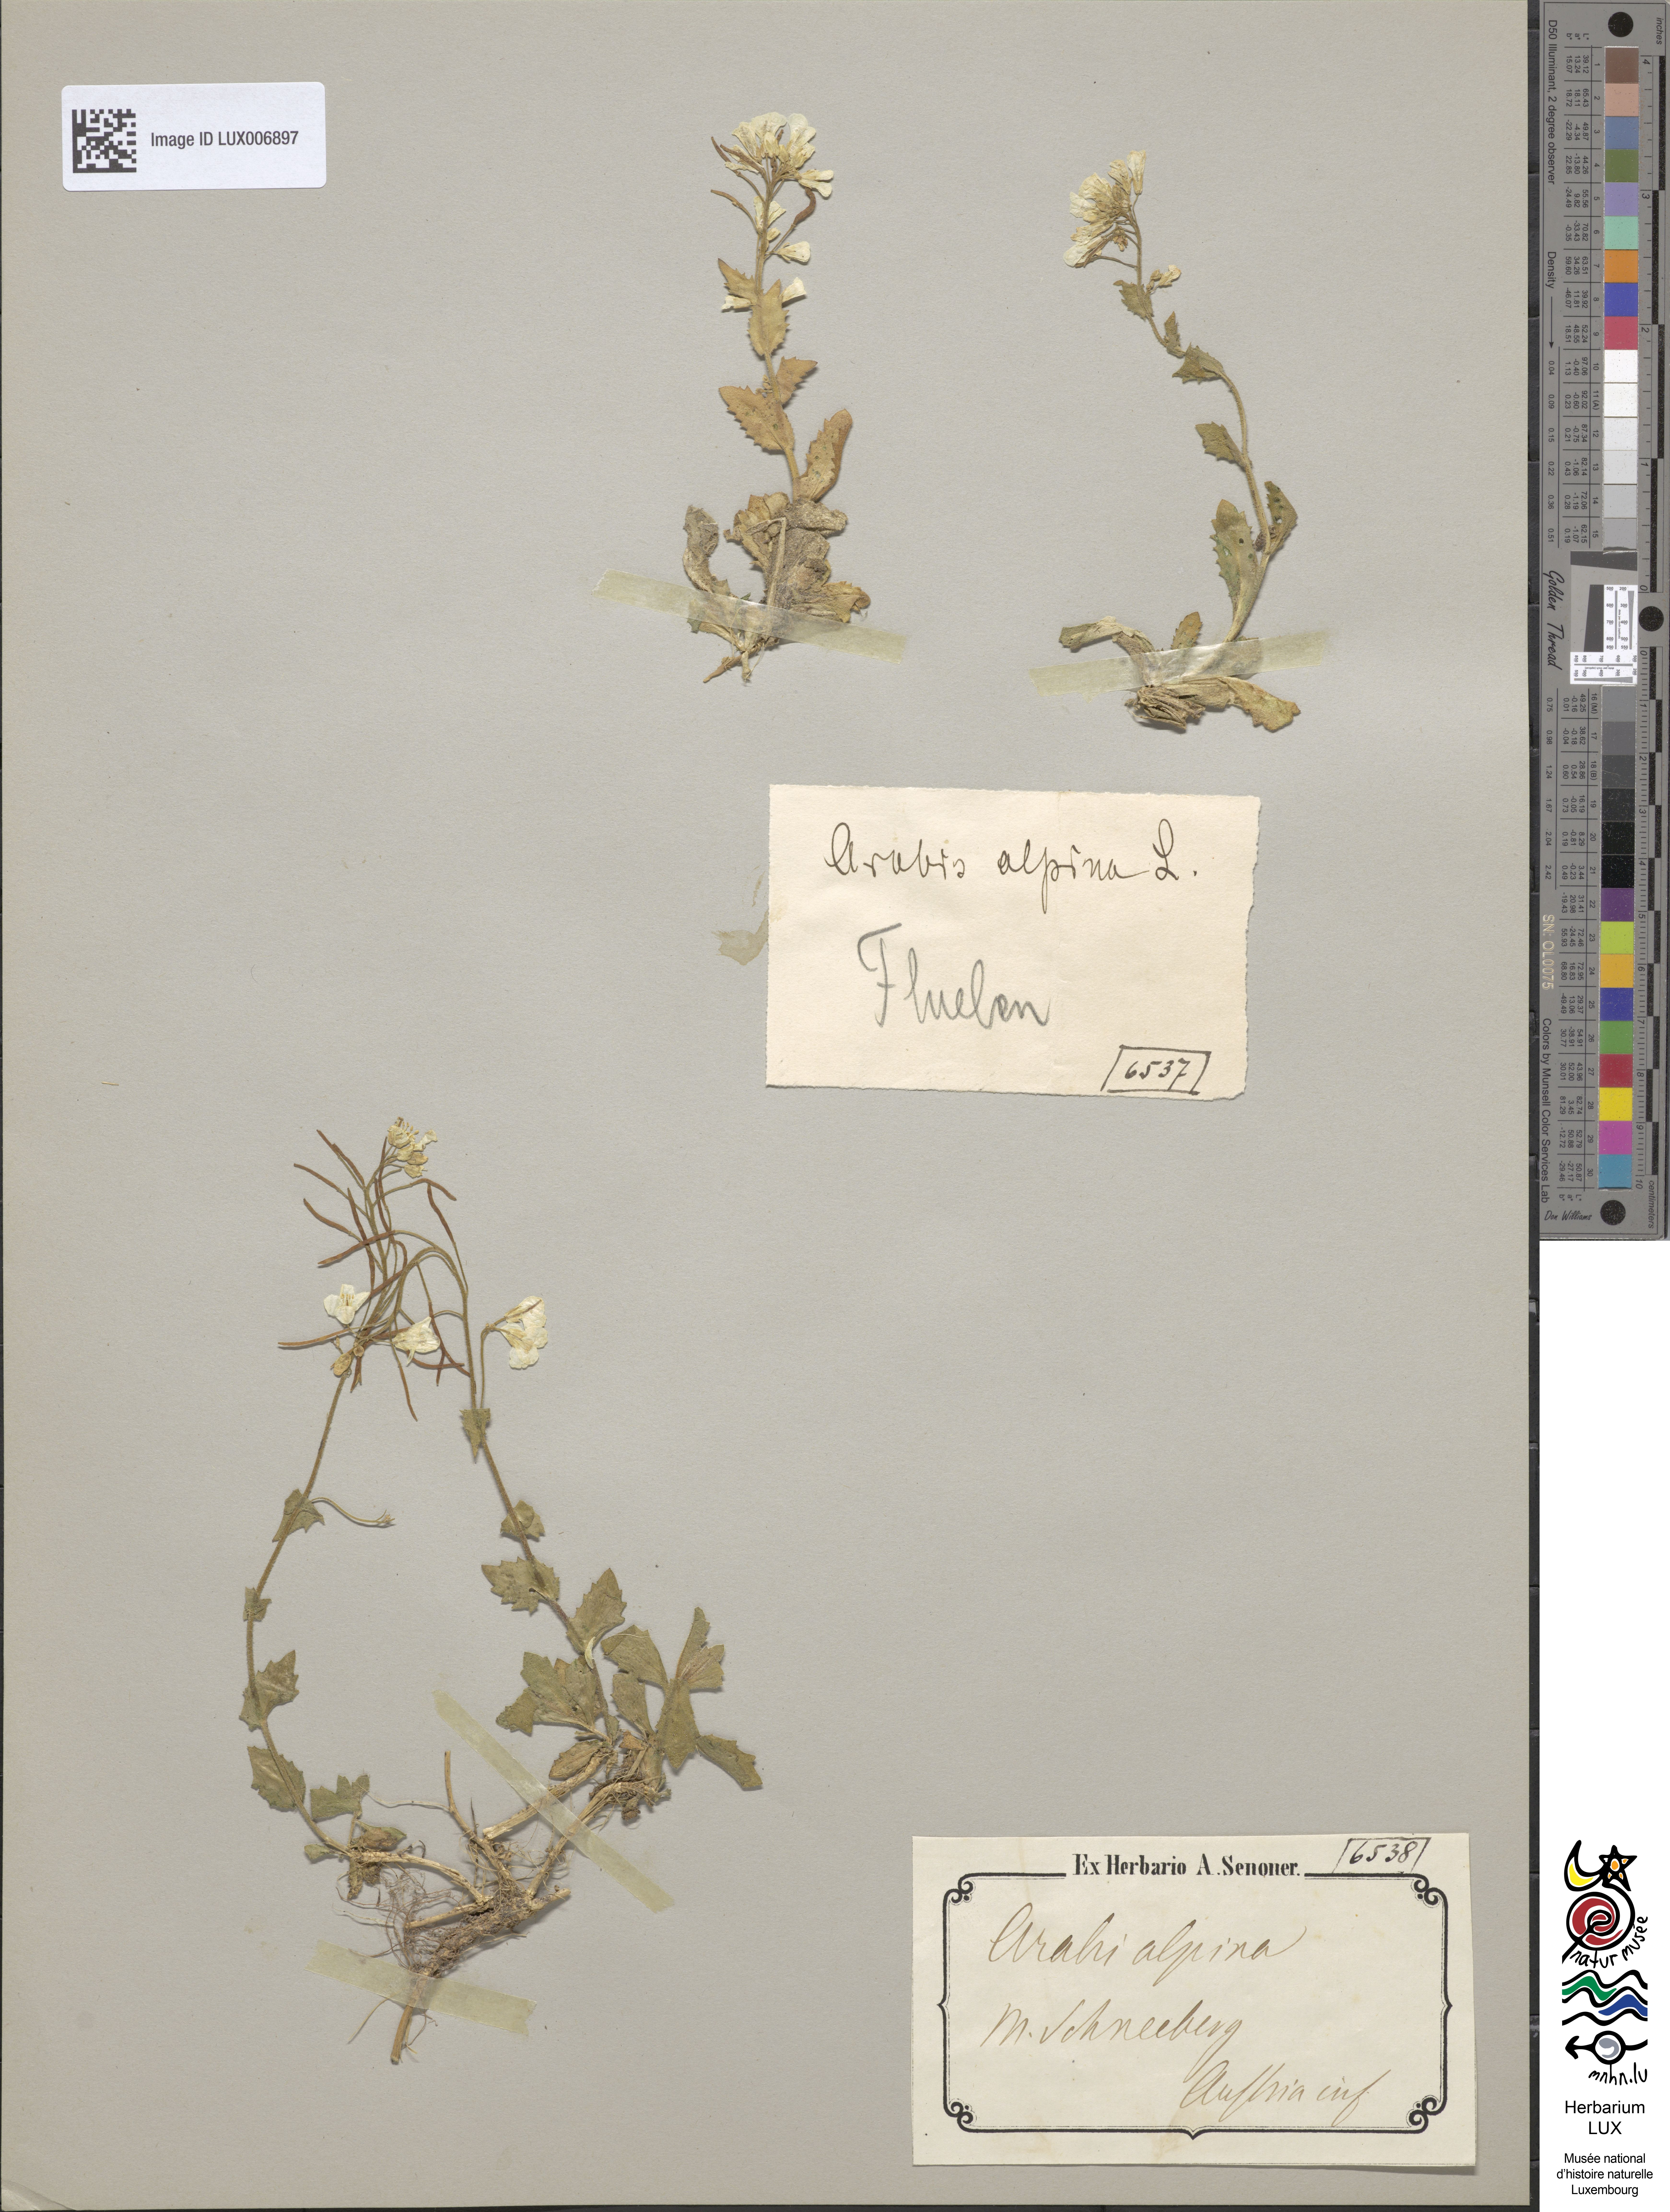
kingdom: Plantae
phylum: Tracheophyta
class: Magnoliopsida
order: Brassicales
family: Brassicaceae
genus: Arabis
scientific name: Arabis alpina
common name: Alpine rock-cress
